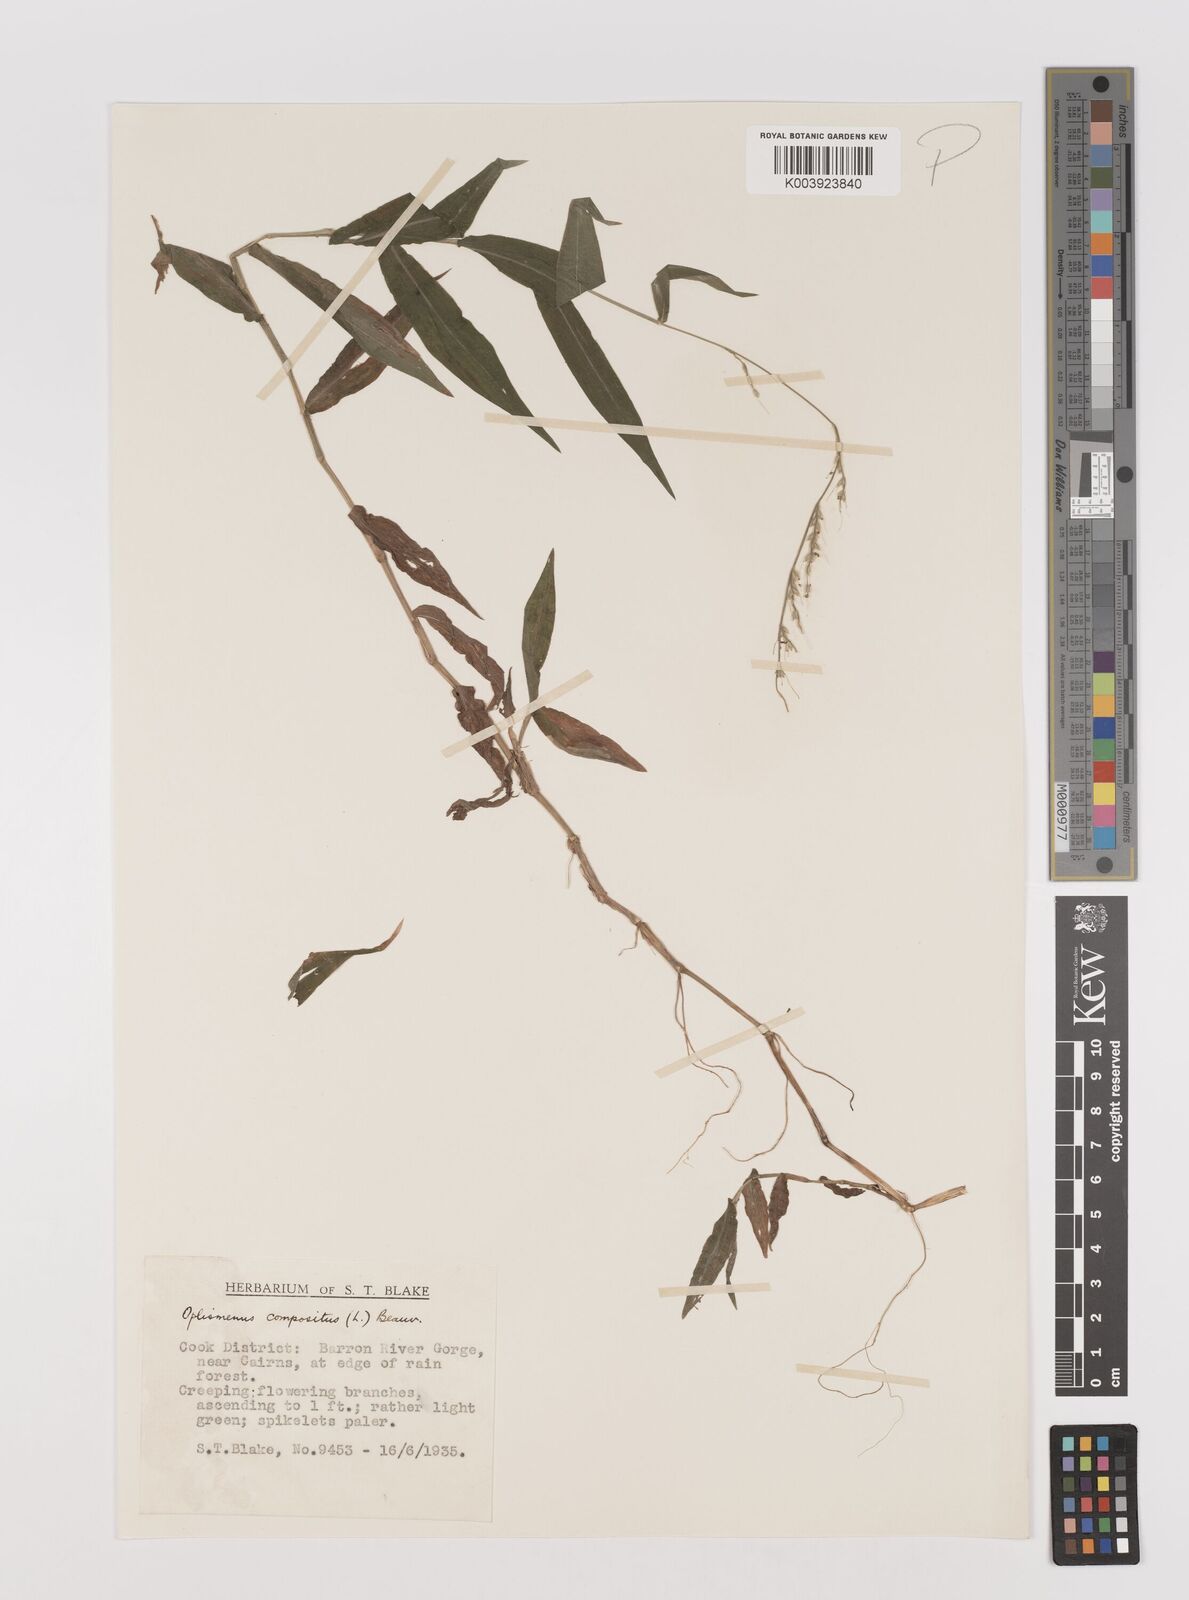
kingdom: Plantae
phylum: Tracheophyta
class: Liliopsida
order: Poales
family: Poaceae
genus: Oplismenus
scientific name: Oplismenus compositus
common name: Running mountain grass
